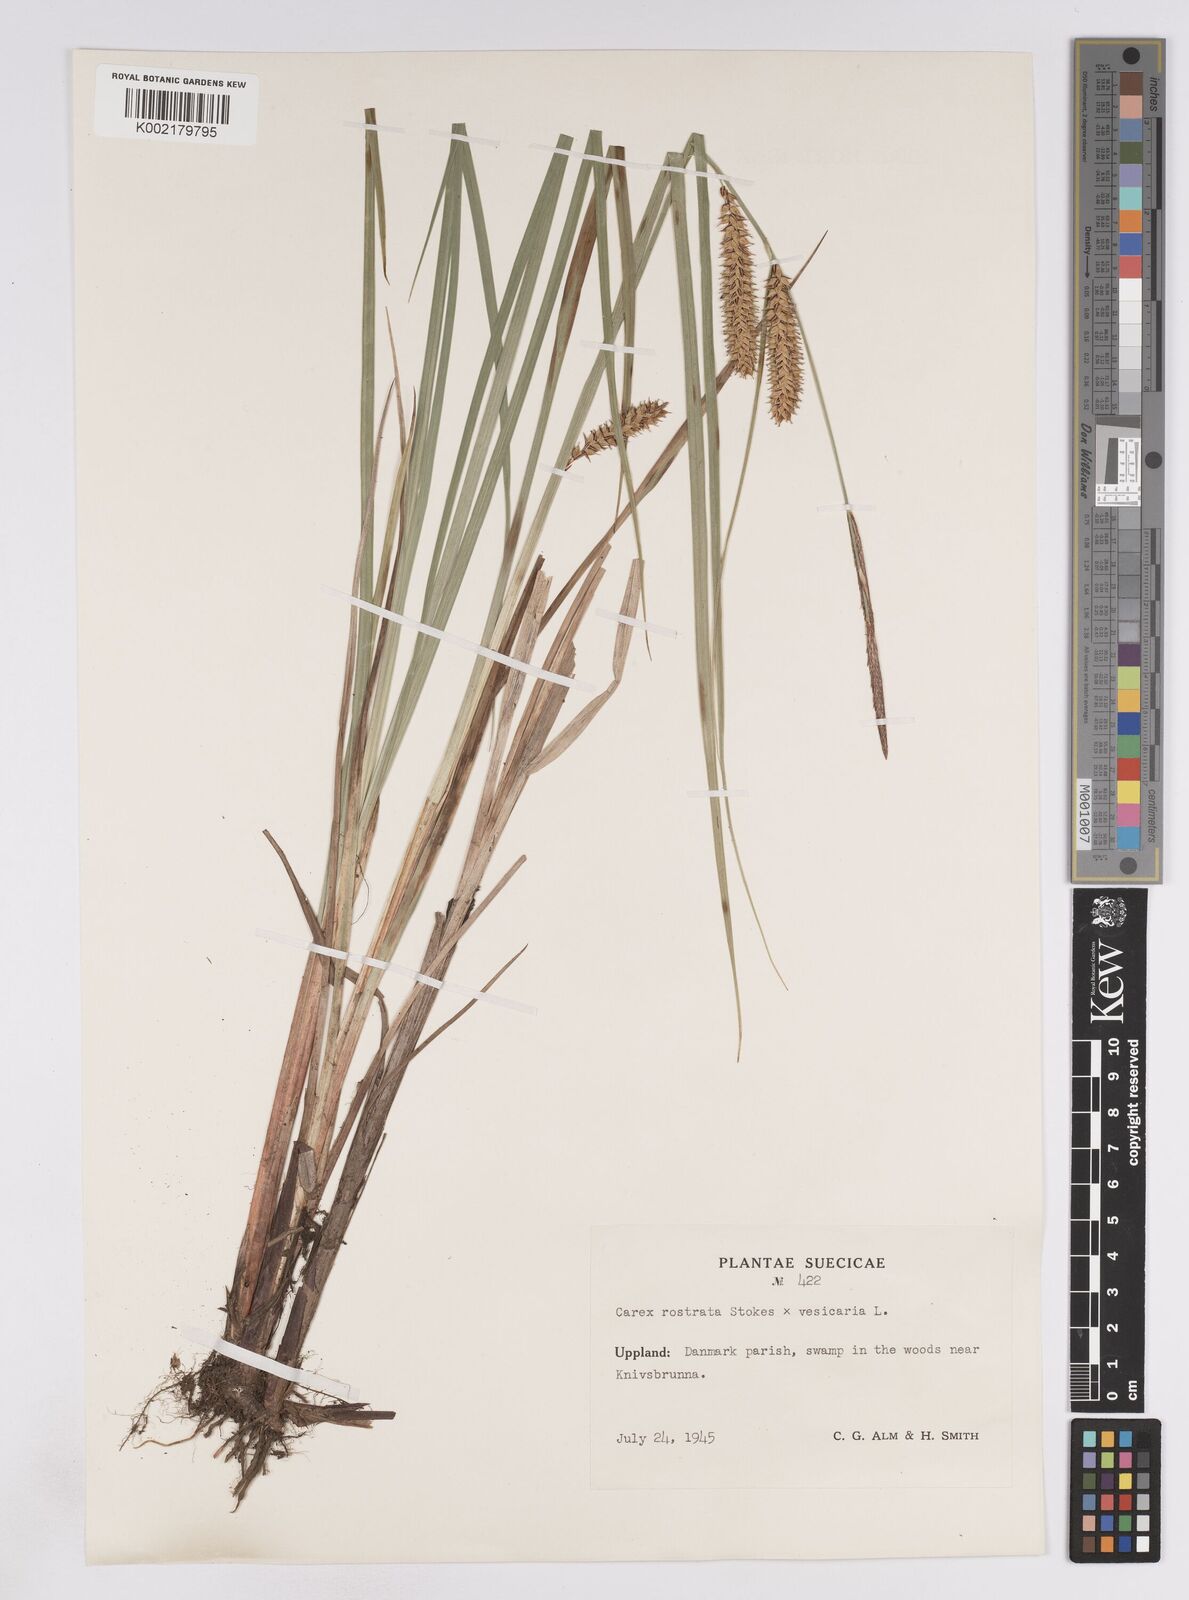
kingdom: Plantae
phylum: Tracheophyta
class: Liliopsida
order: Poales
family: Cyperaceae
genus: Carex
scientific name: Carex rostrata
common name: Bottle sedge
